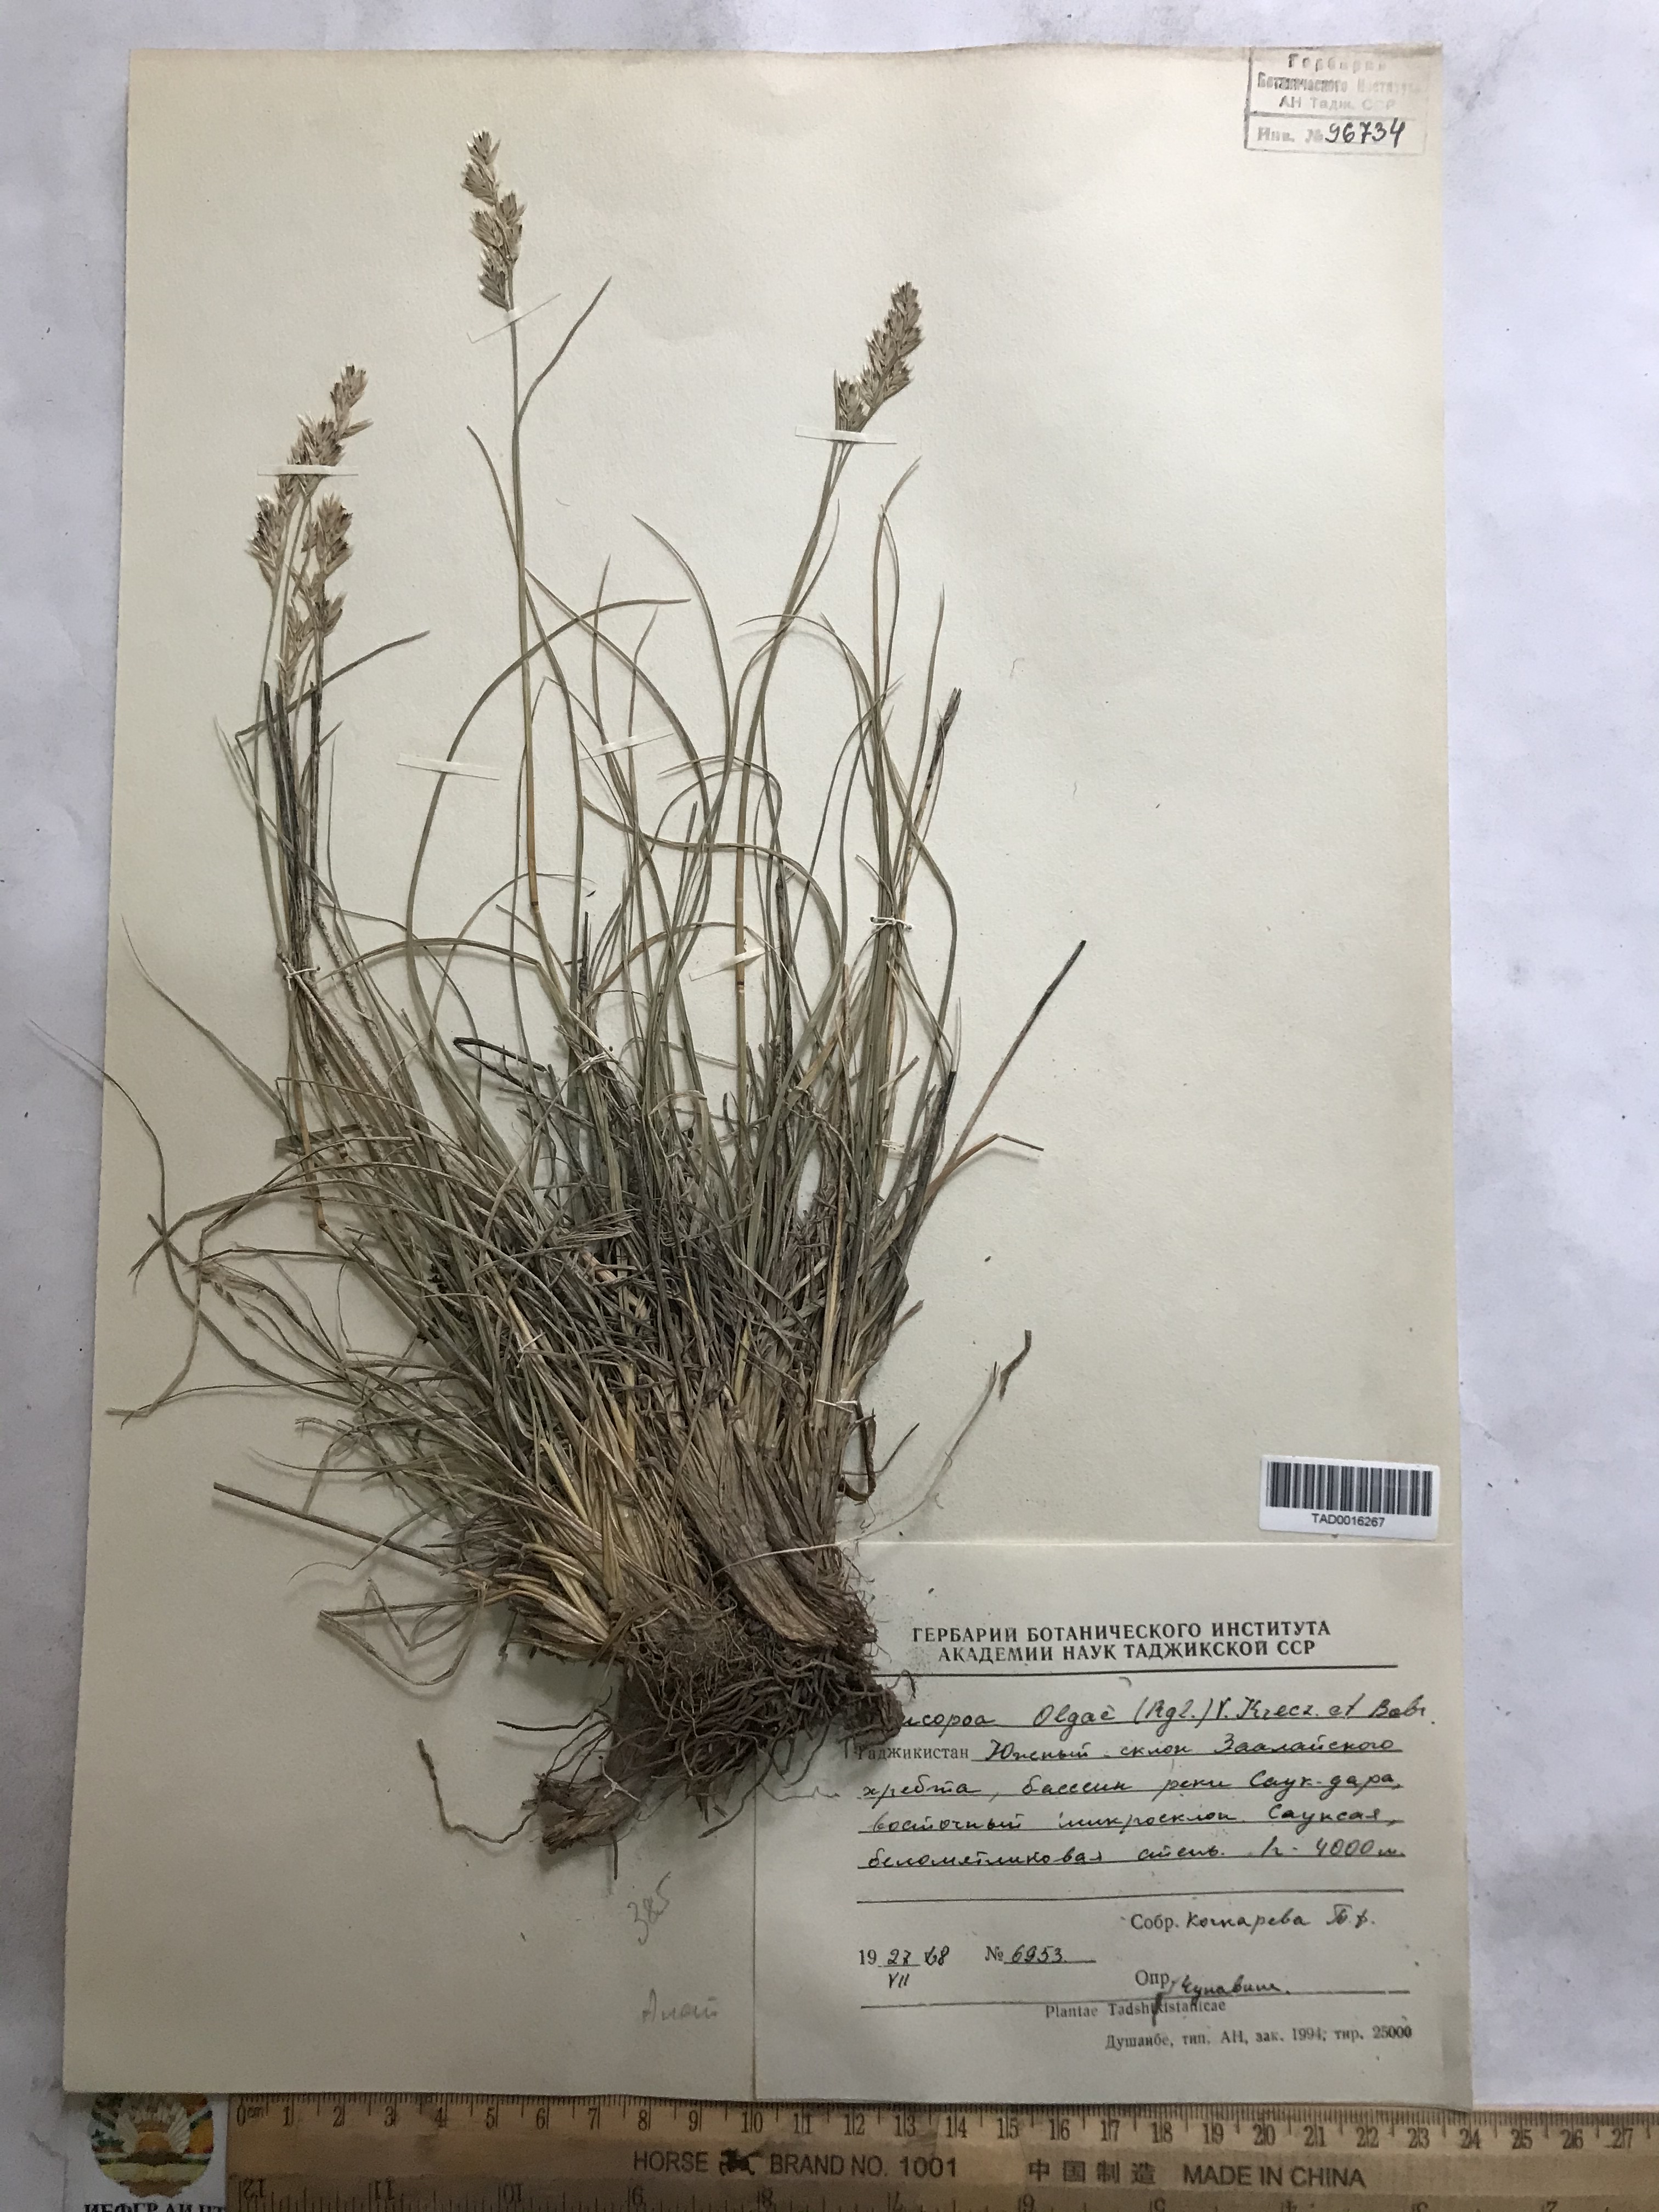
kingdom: Plantae
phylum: Tracheophyta
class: Liliopsida
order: Poales
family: Poaceae
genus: Festuca
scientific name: Festuca
